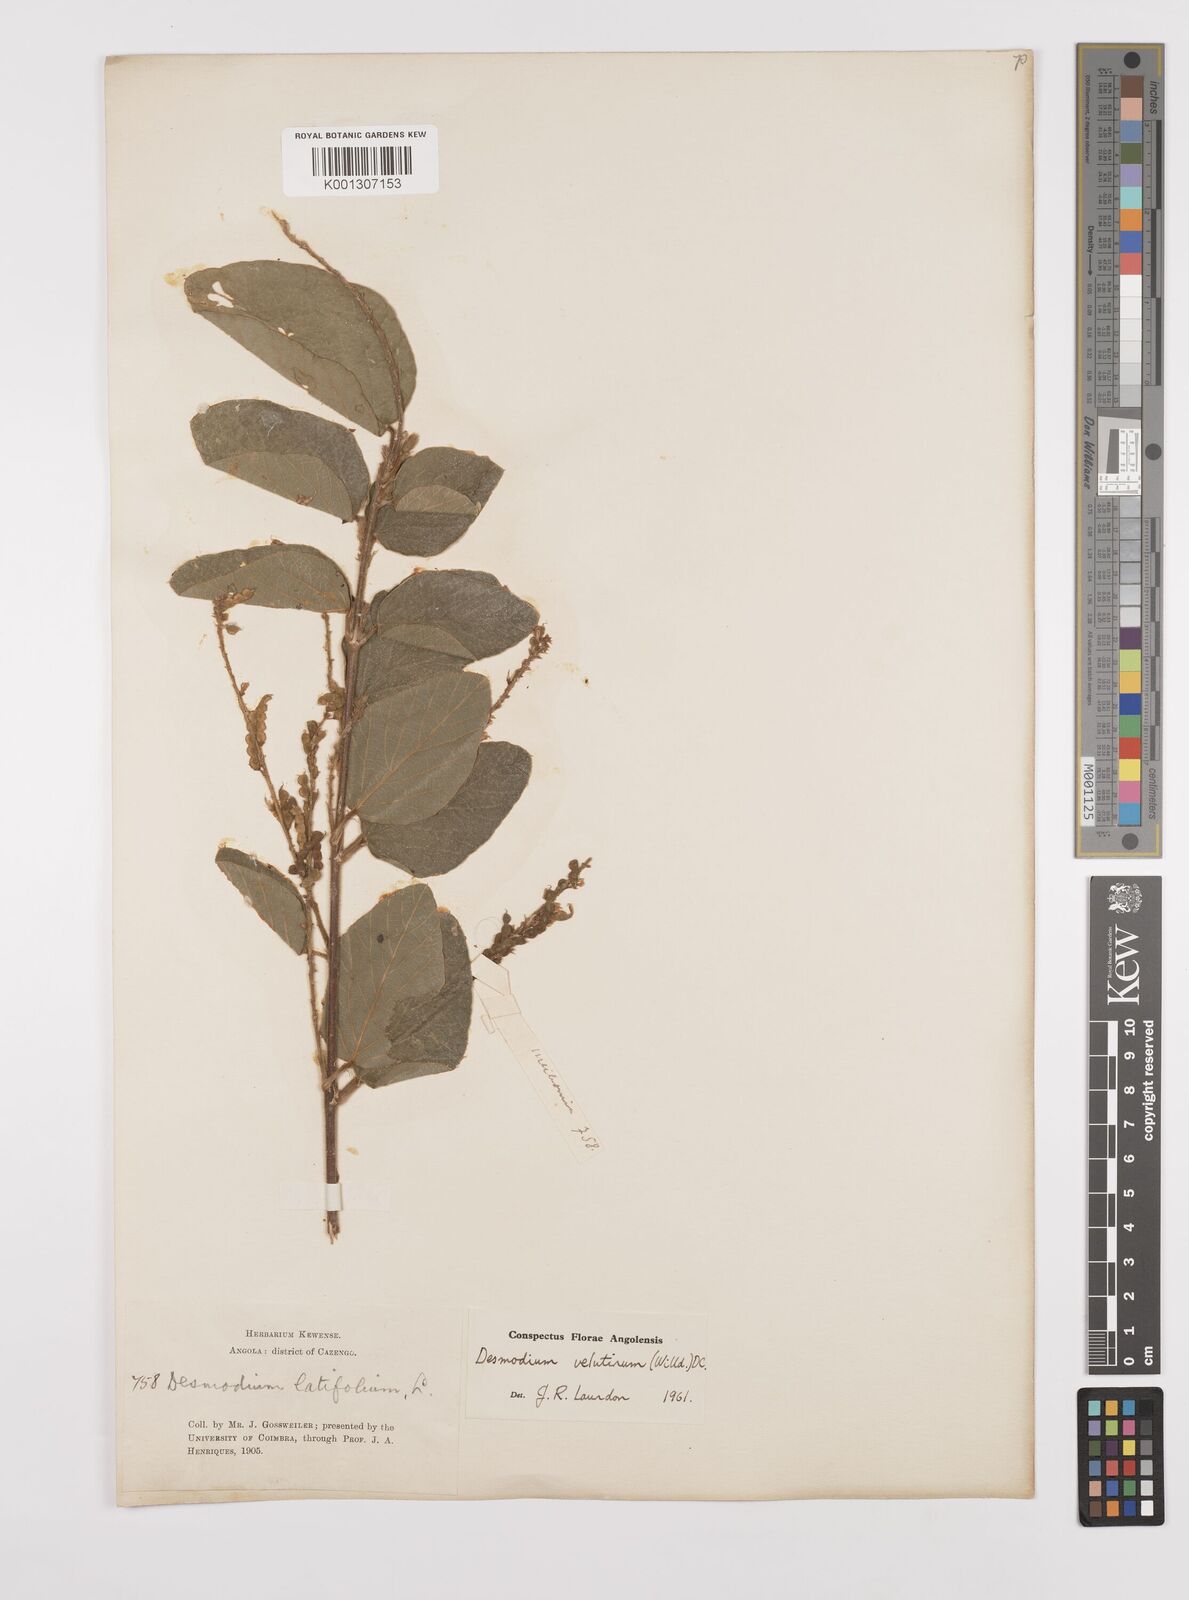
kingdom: Plantae
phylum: Tracheophyta
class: Magnoliopsida
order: Fabales
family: Fabaceae
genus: Polhillides
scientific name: Polhillides velutina
